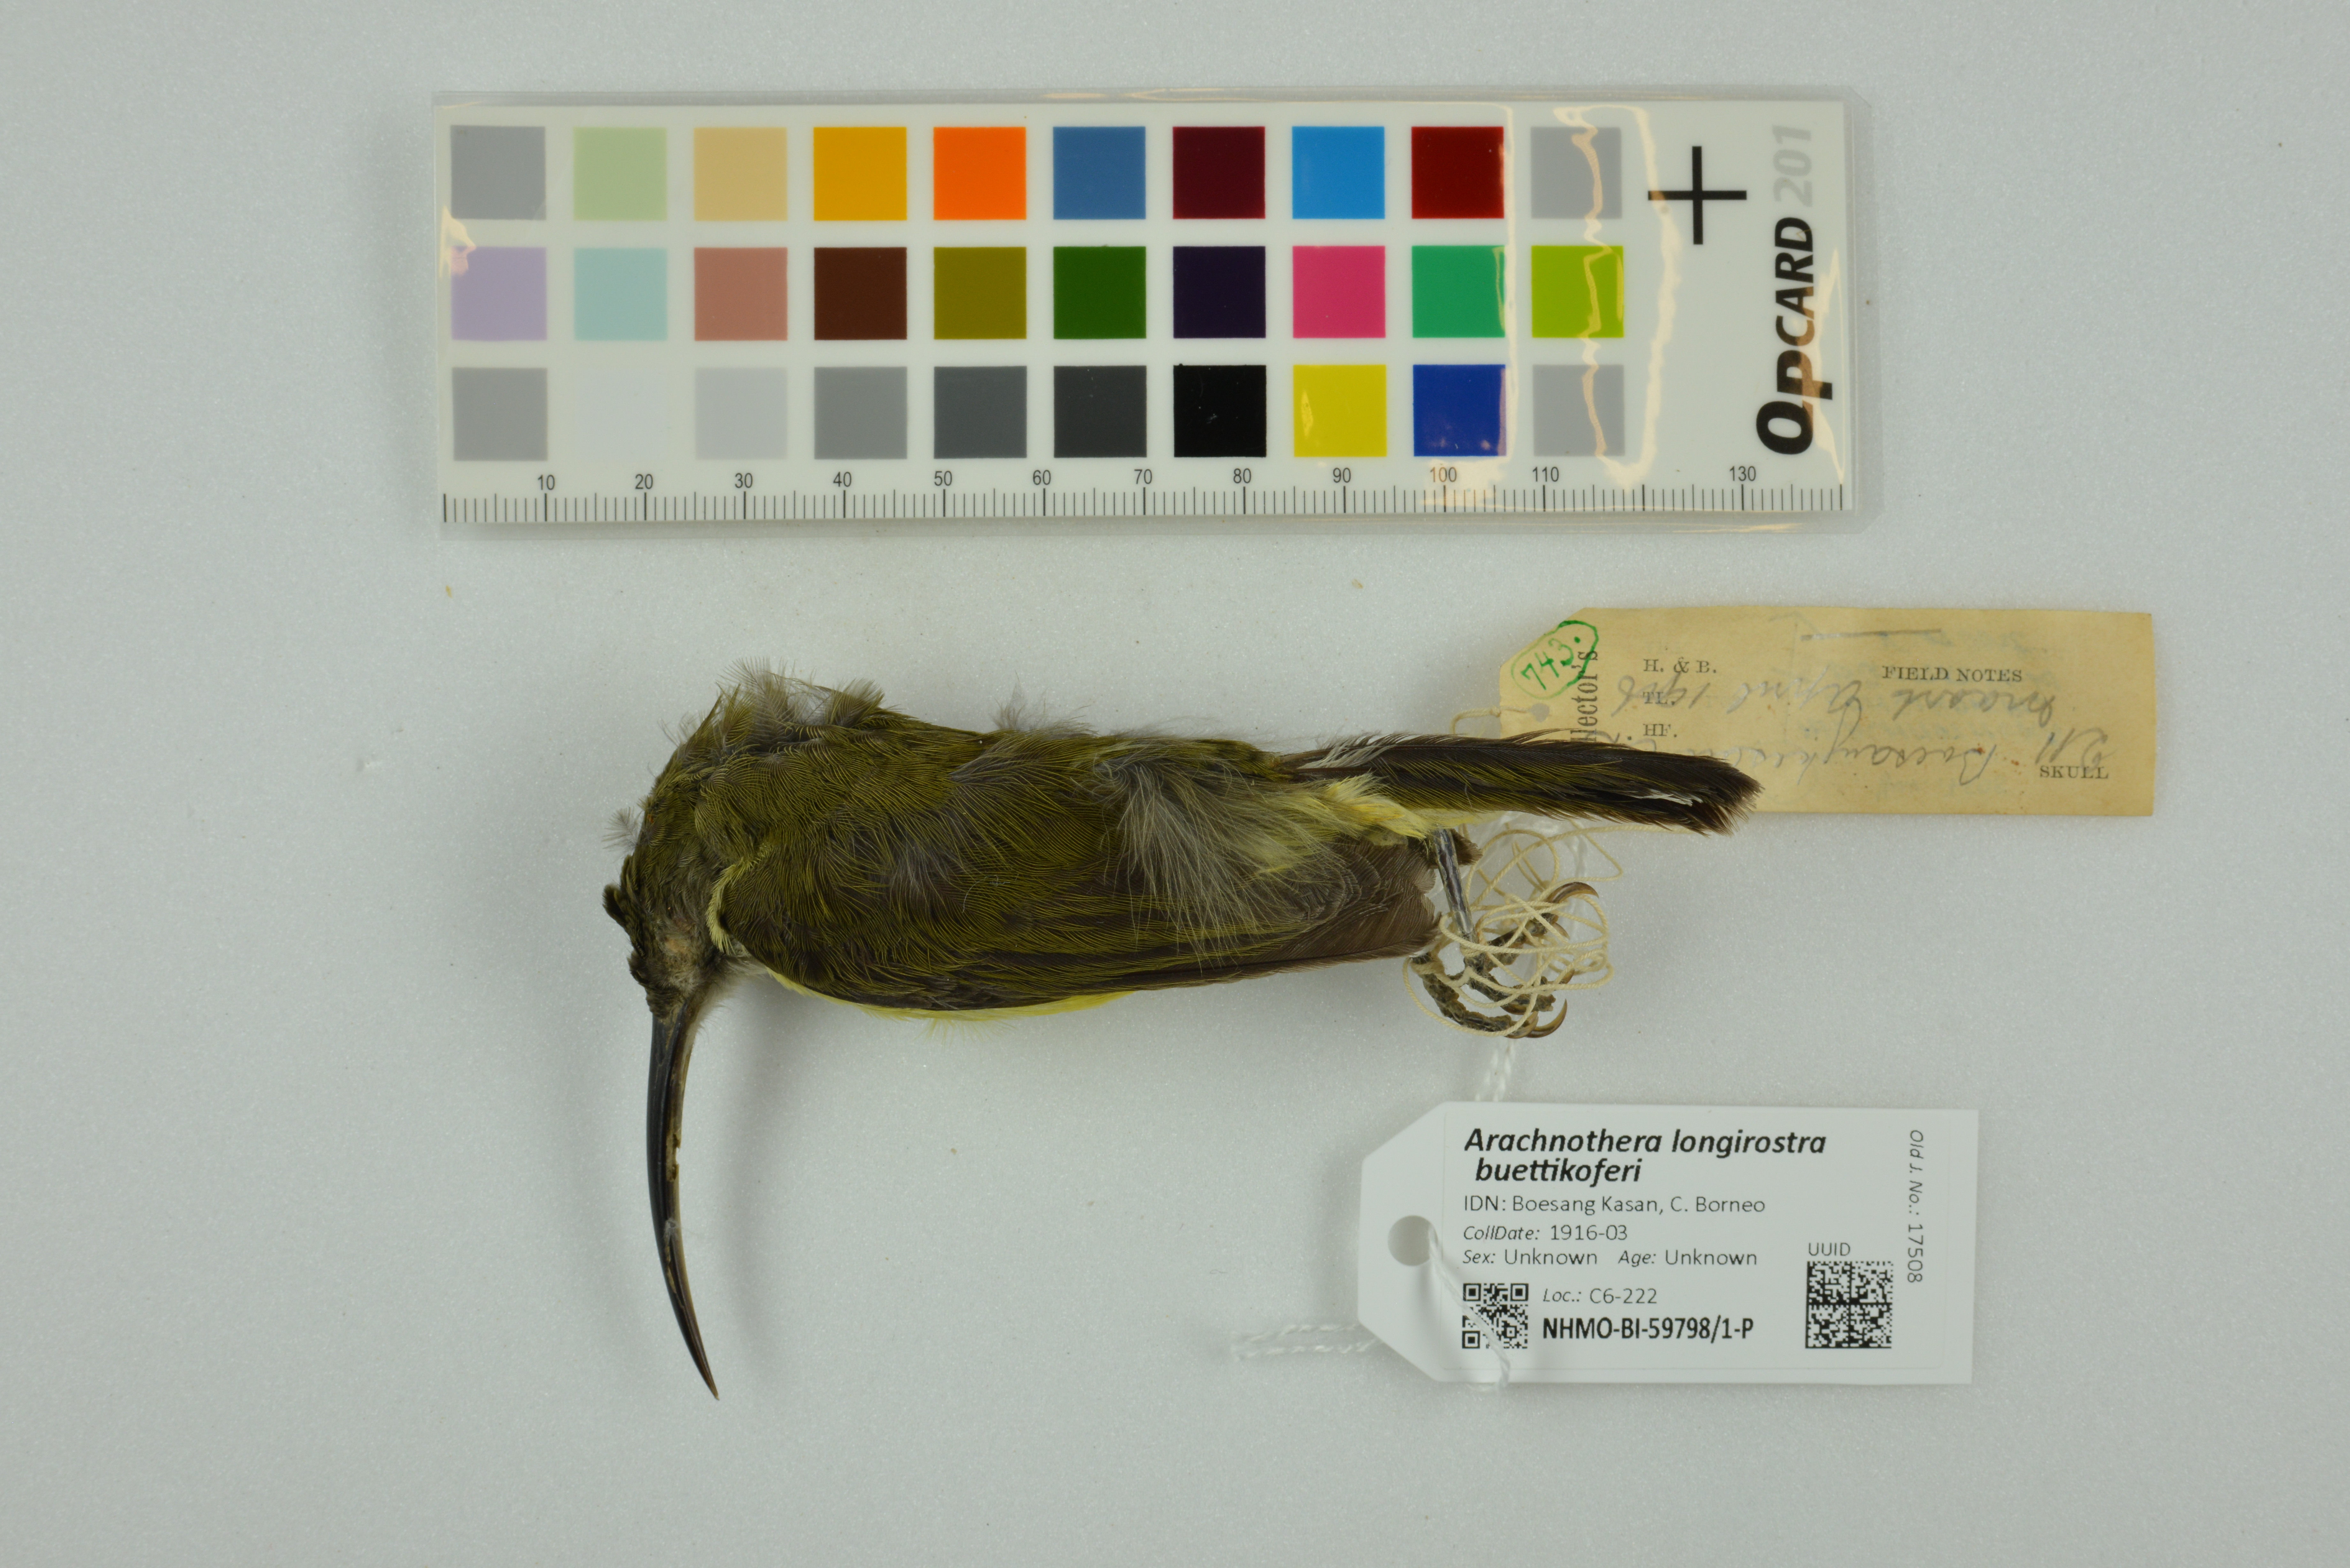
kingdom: Animalia
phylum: Chordata
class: Aves
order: Passeriformes
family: Nectariniidae
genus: Arachnothera
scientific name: Arachnothera longirostra
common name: Little spiderhunter
